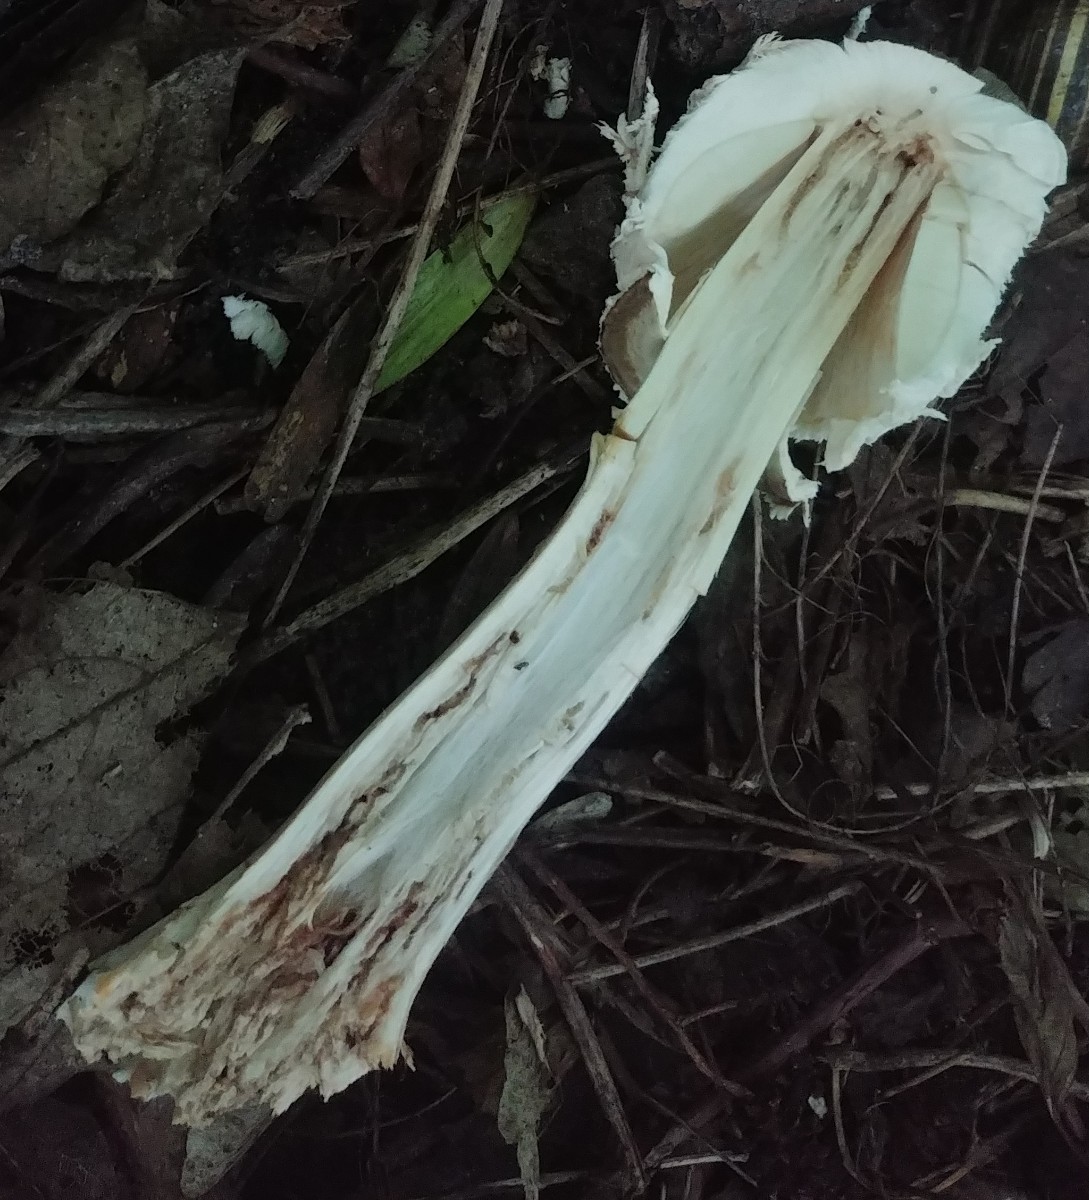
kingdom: Fungi
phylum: Basidiomycota
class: Agaricomycetes
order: Agaricales
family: Agaricaceae
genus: Chlorophyllum
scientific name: Chlorophyllum rhacodes
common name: ægte rabarberhat
